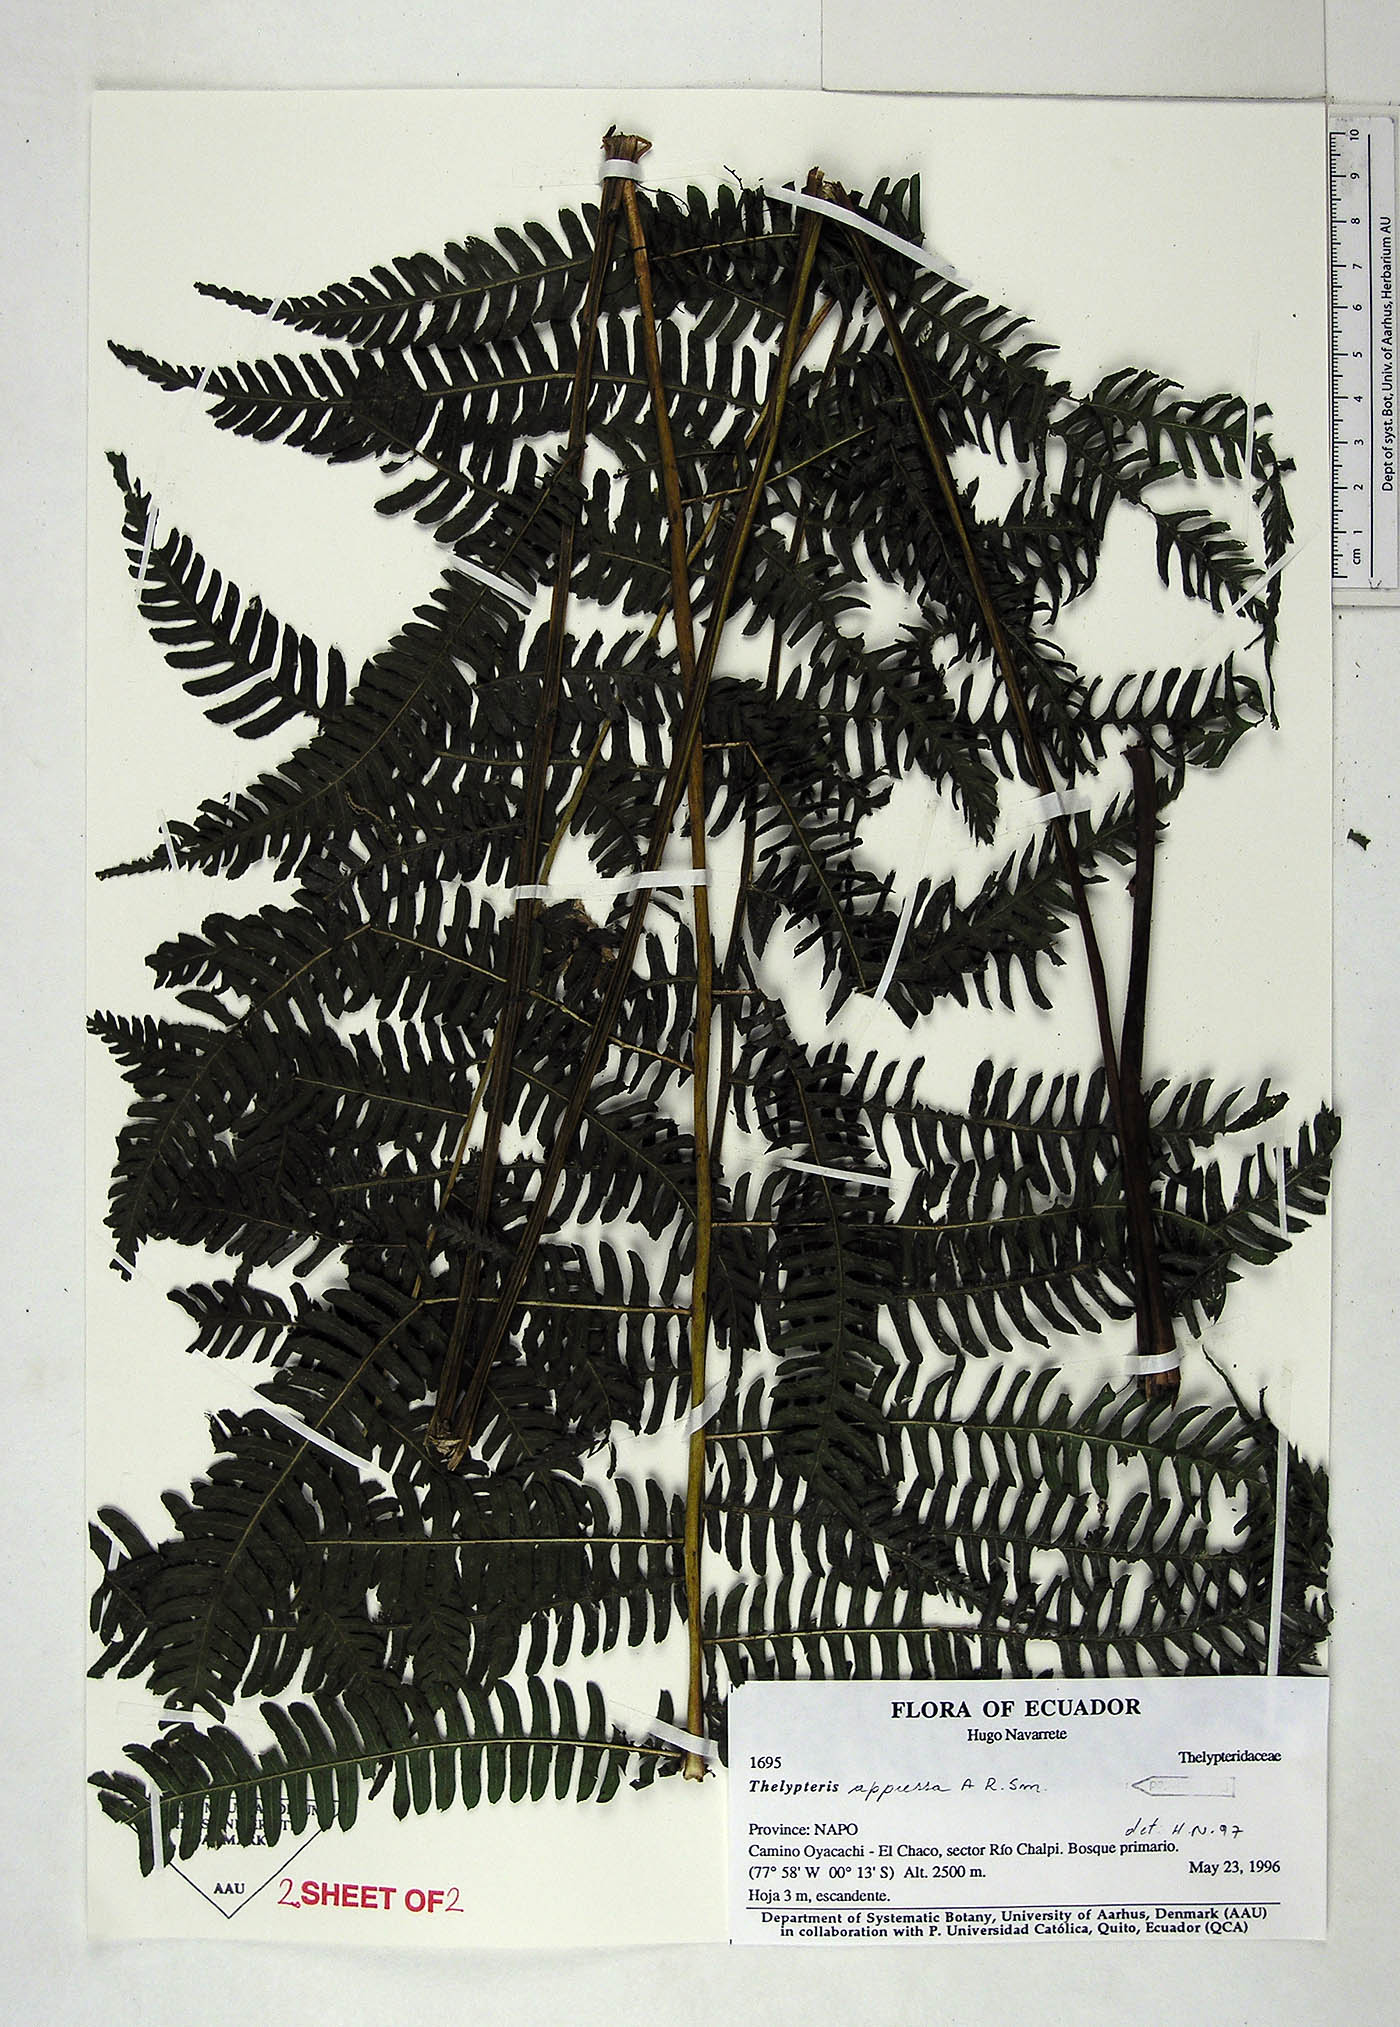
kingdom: Plantae
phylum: Tracheophyta
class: Polypodiopsida
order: Polypodiales
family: Thelypteridaceae
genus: Amauropelta
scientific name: Amauropelta appressa
